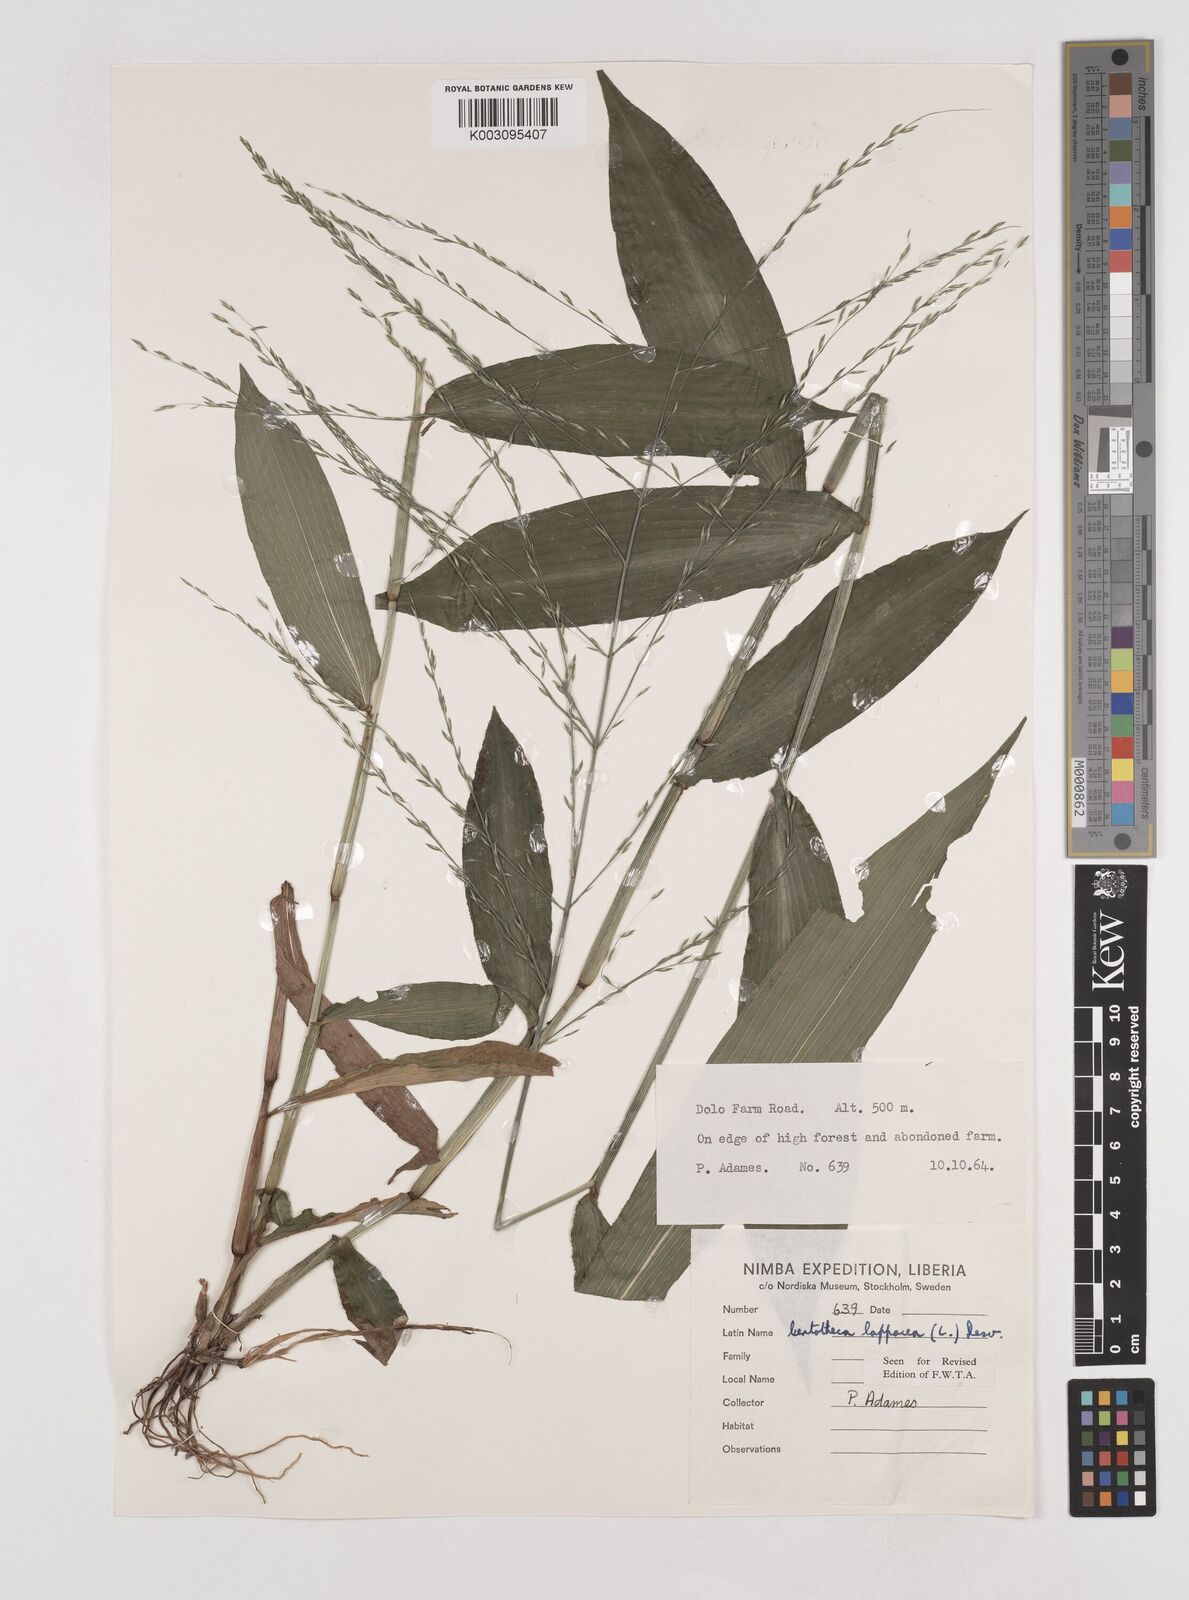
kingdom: Plantae
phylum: Tracheophyta
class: Liliopsida
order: Poales
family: Poaceae
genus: Centotheca
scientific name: Centotheca lappacea
